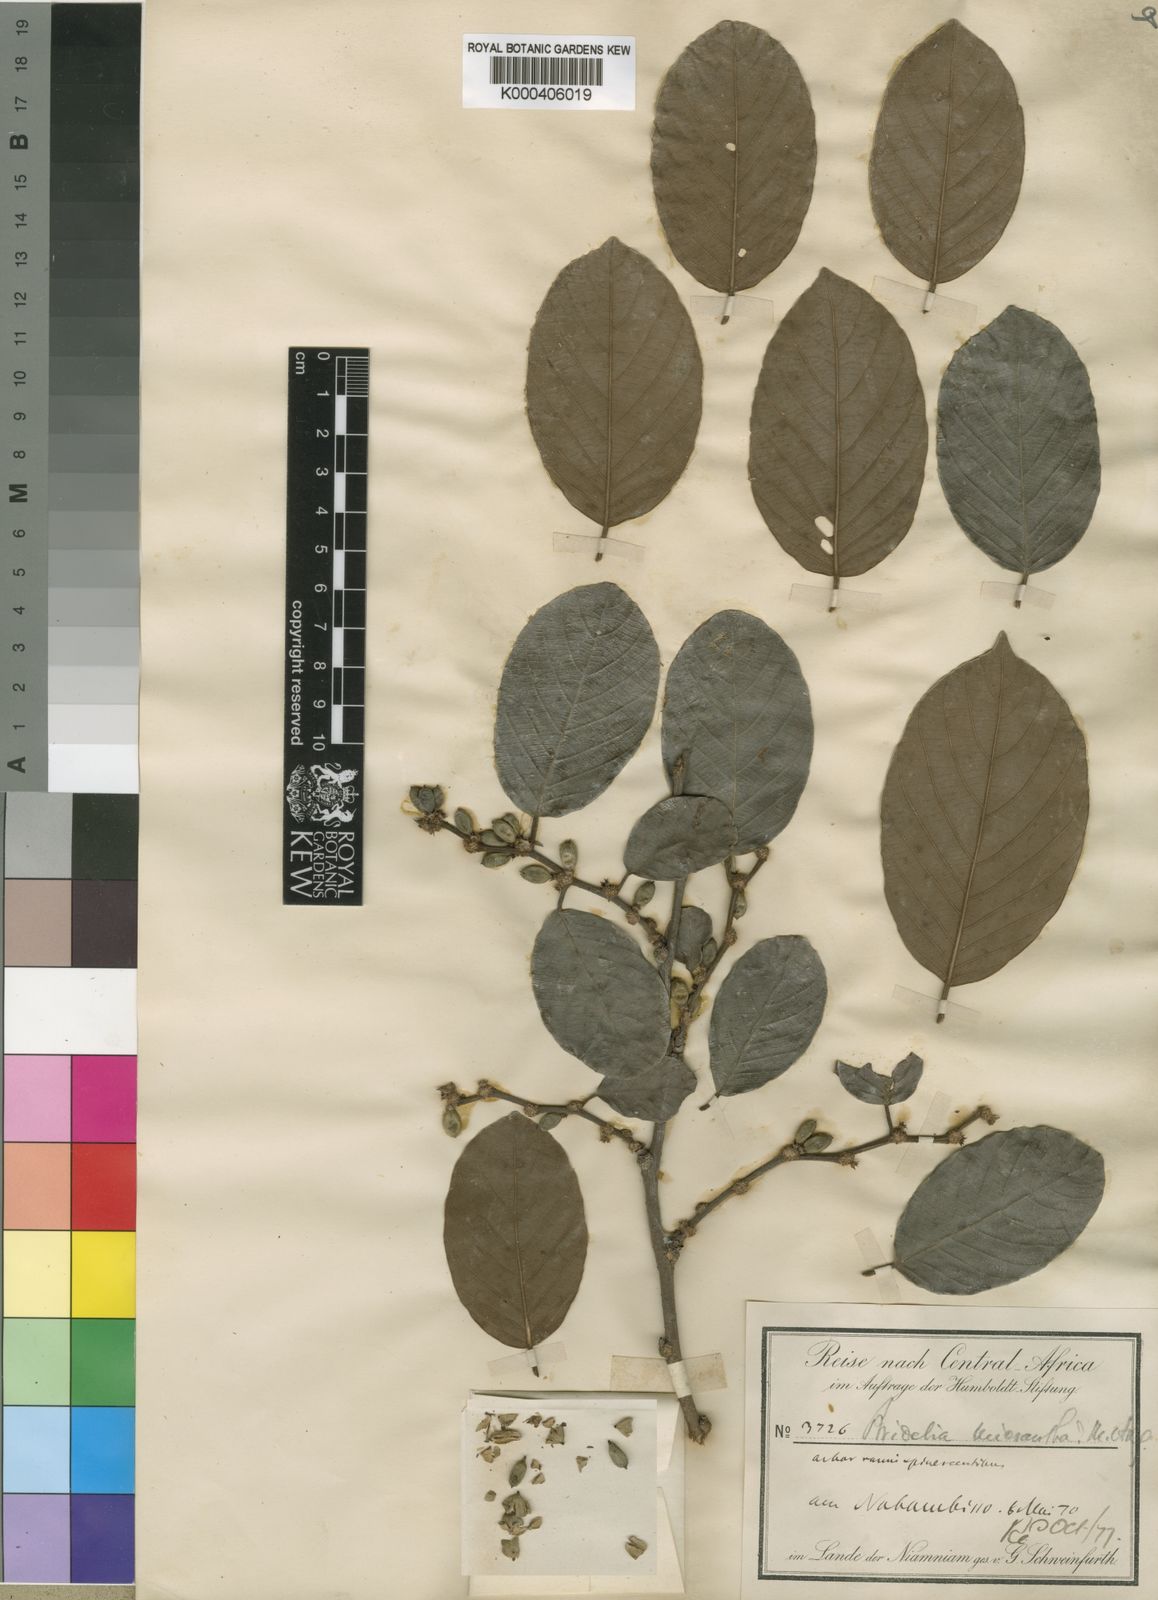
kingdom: Plantae
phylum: Tracheophyta
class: Magnoliopsida
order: Malpighiales
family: Phyllanthaceae
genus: Bridelia
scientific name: Bridelia ndellensis
